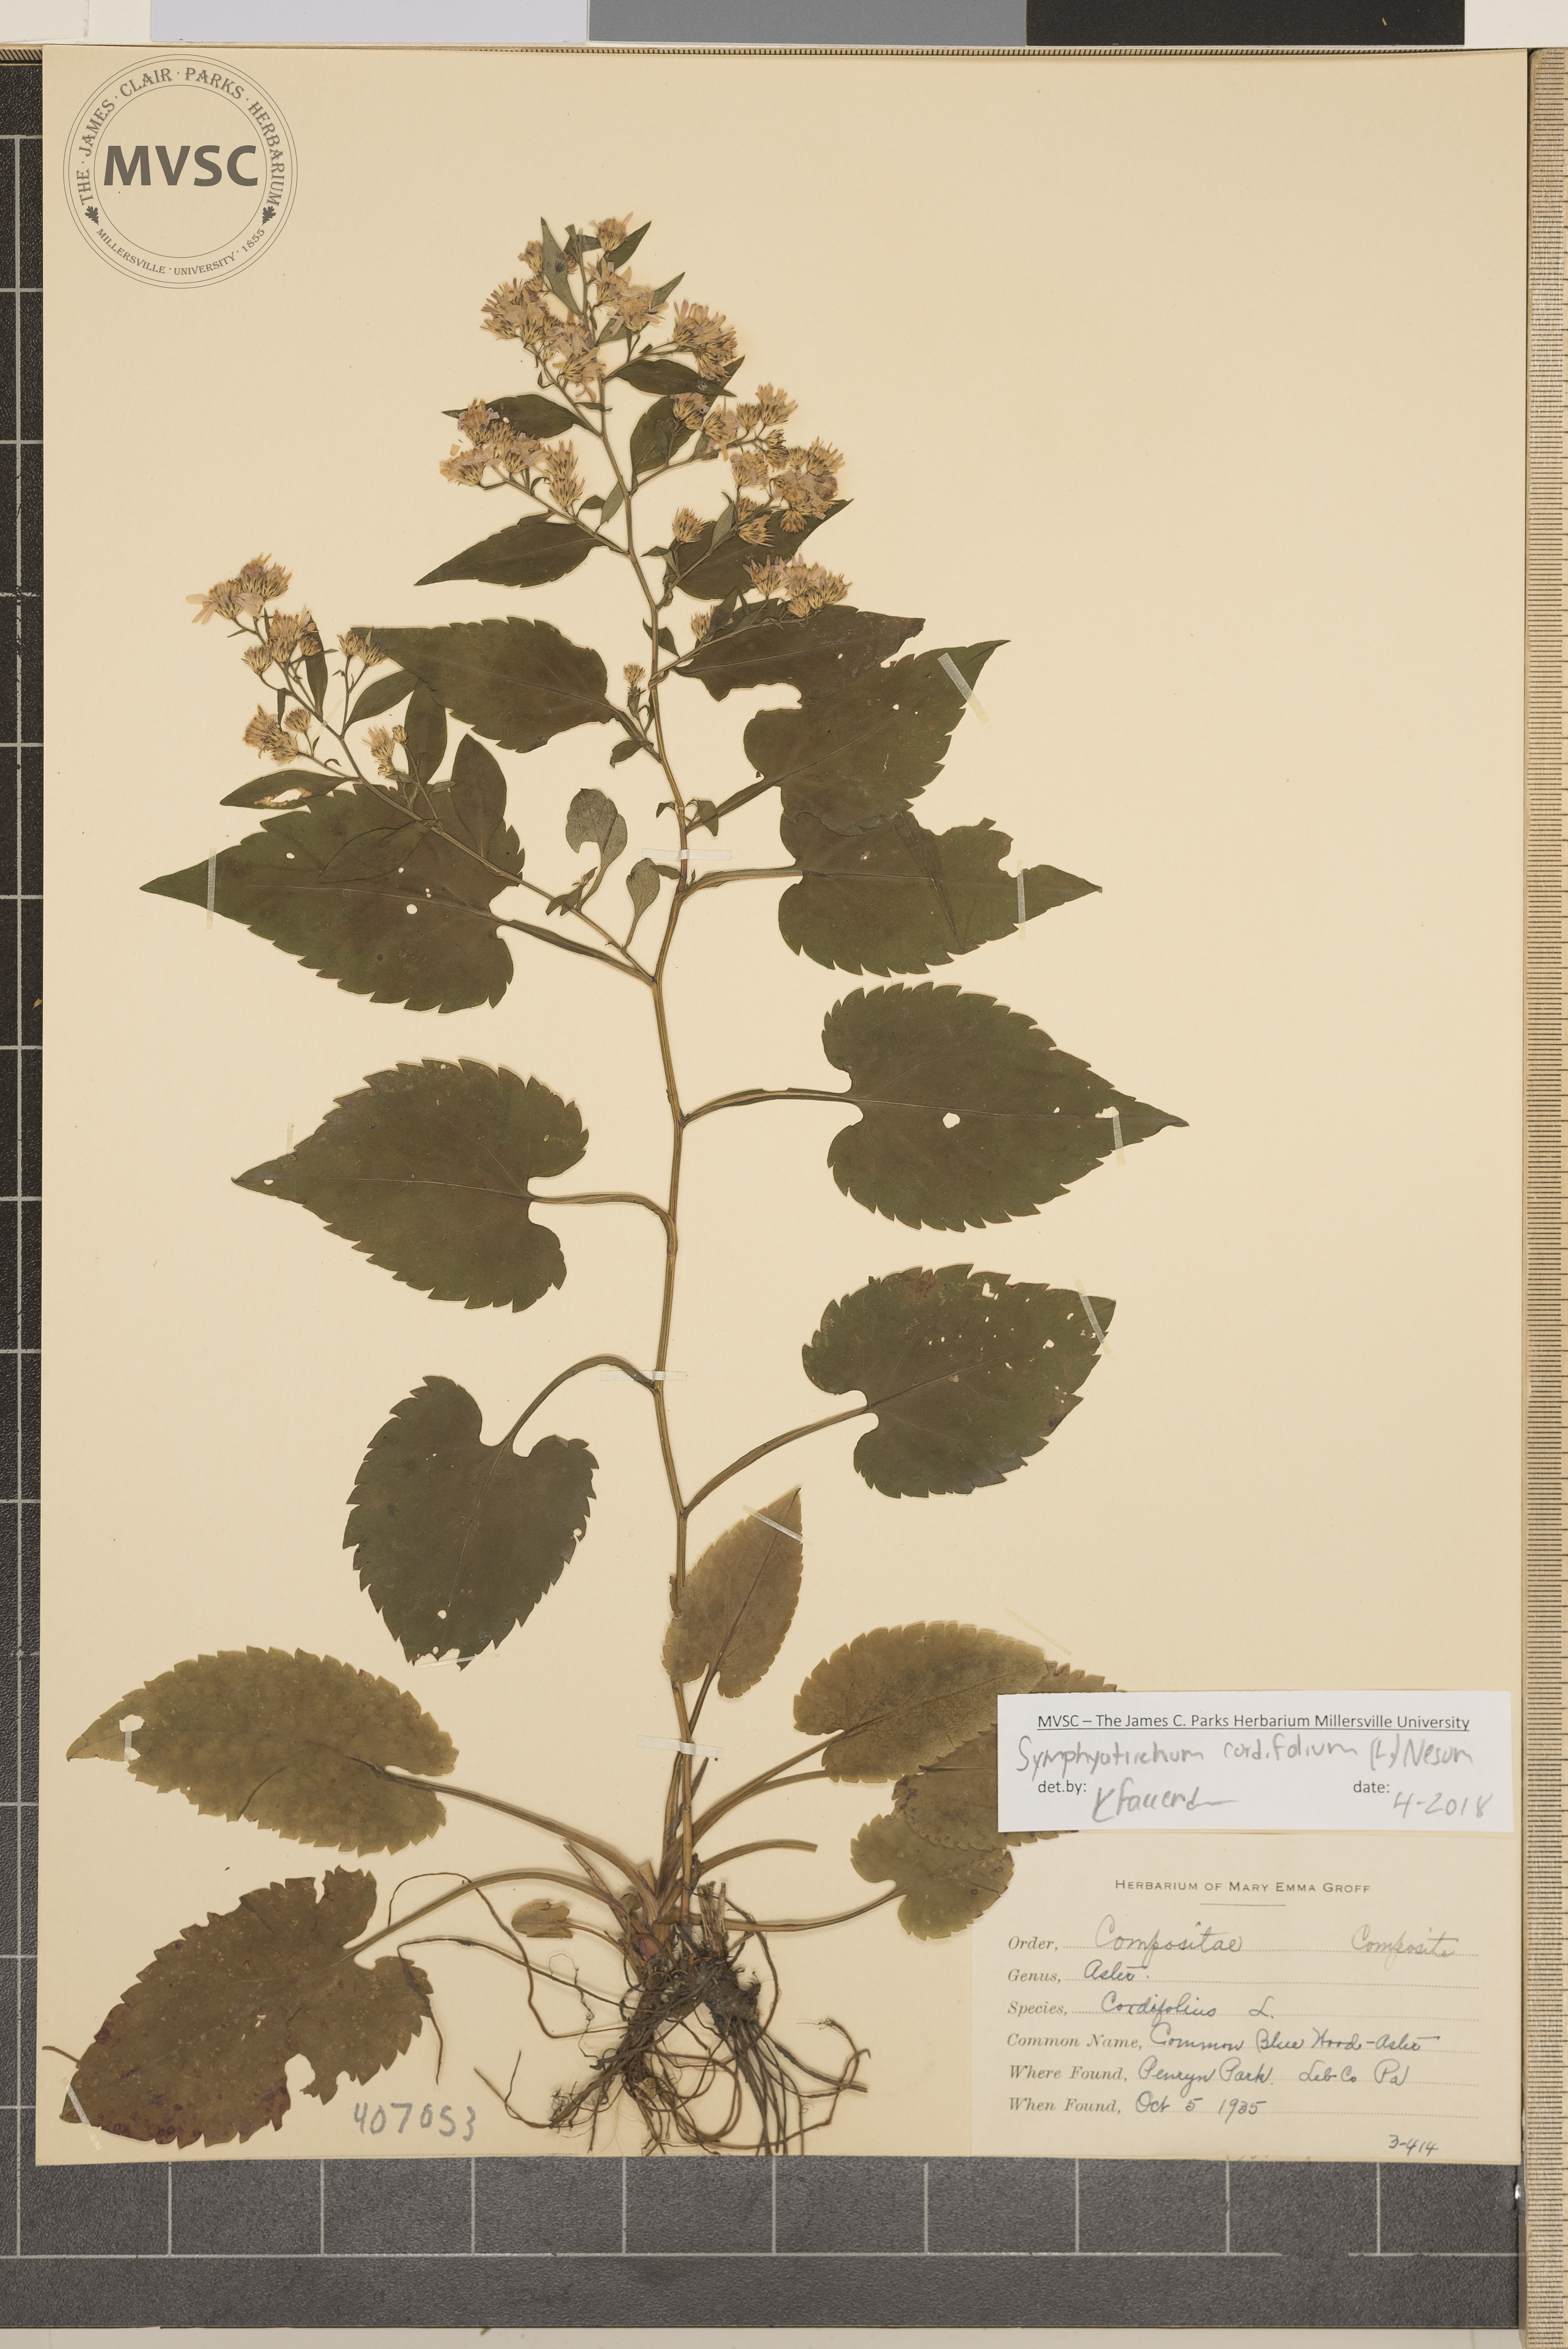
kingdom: Plantae
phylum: Tracheophyta
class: Magnoliopsida
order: Asterales
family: Asteraceae
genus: Symphyotrichum
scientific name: Symphyotrichum cordifolium
